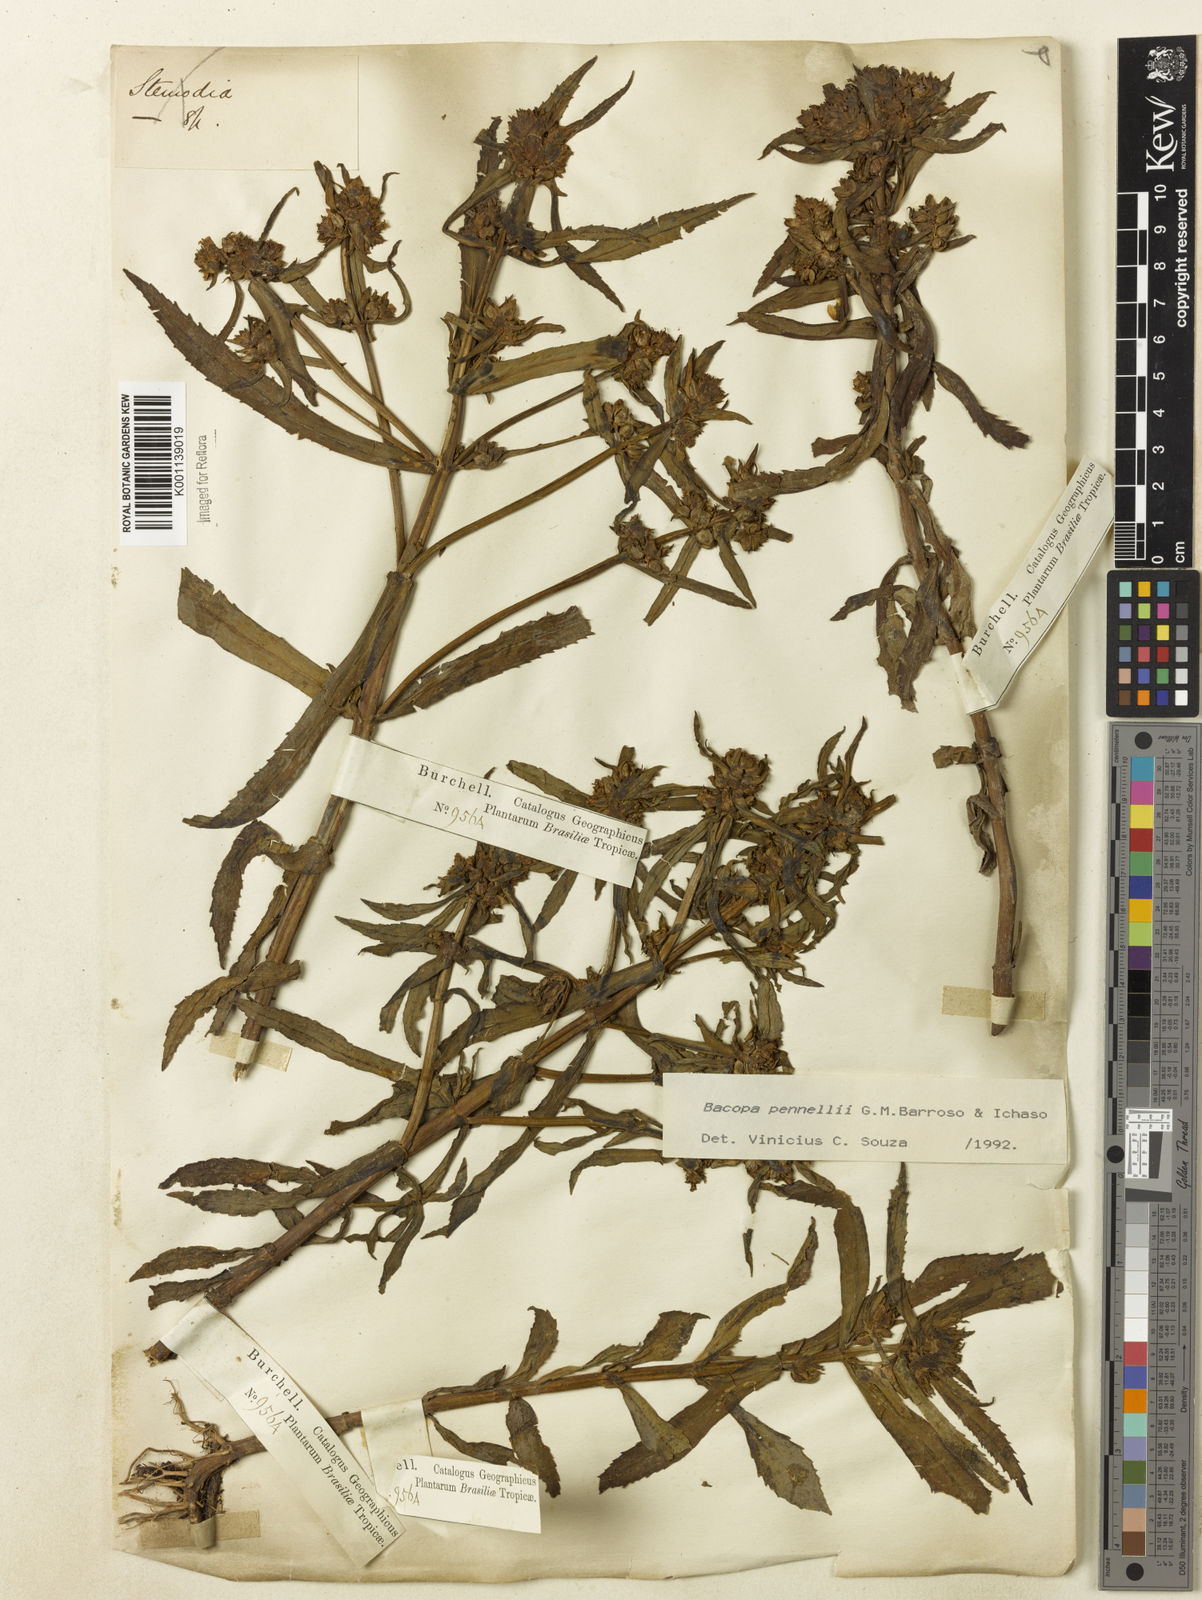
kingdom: Plantae
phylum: Tracheophyta
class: Magnoliopsida
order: Lamiales
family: Plantaginaceae
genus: Bacopa
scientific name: Bacopa pennellii
